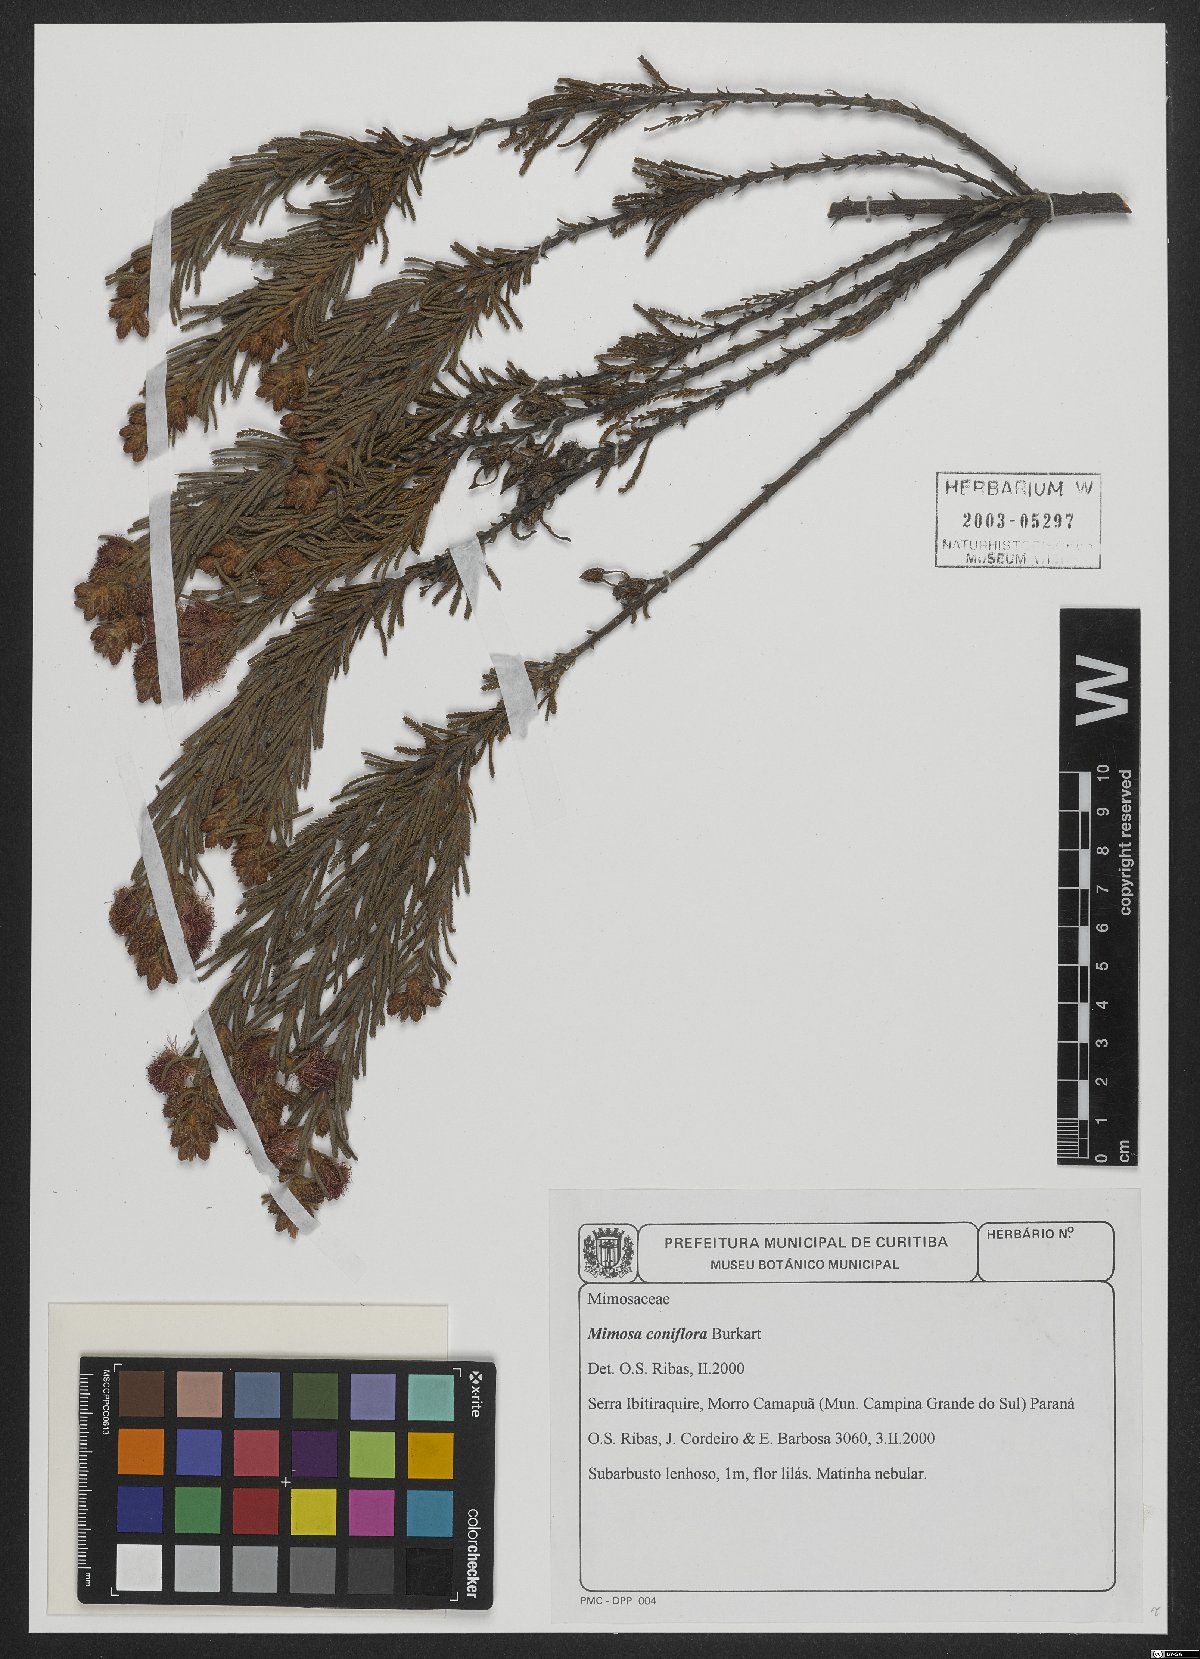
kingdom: Plantae
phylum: Tracheophyta
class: Magnoliopsida
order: Fabales
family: Fabaceae
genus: Mimosa
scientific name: Mimosa coniflora
